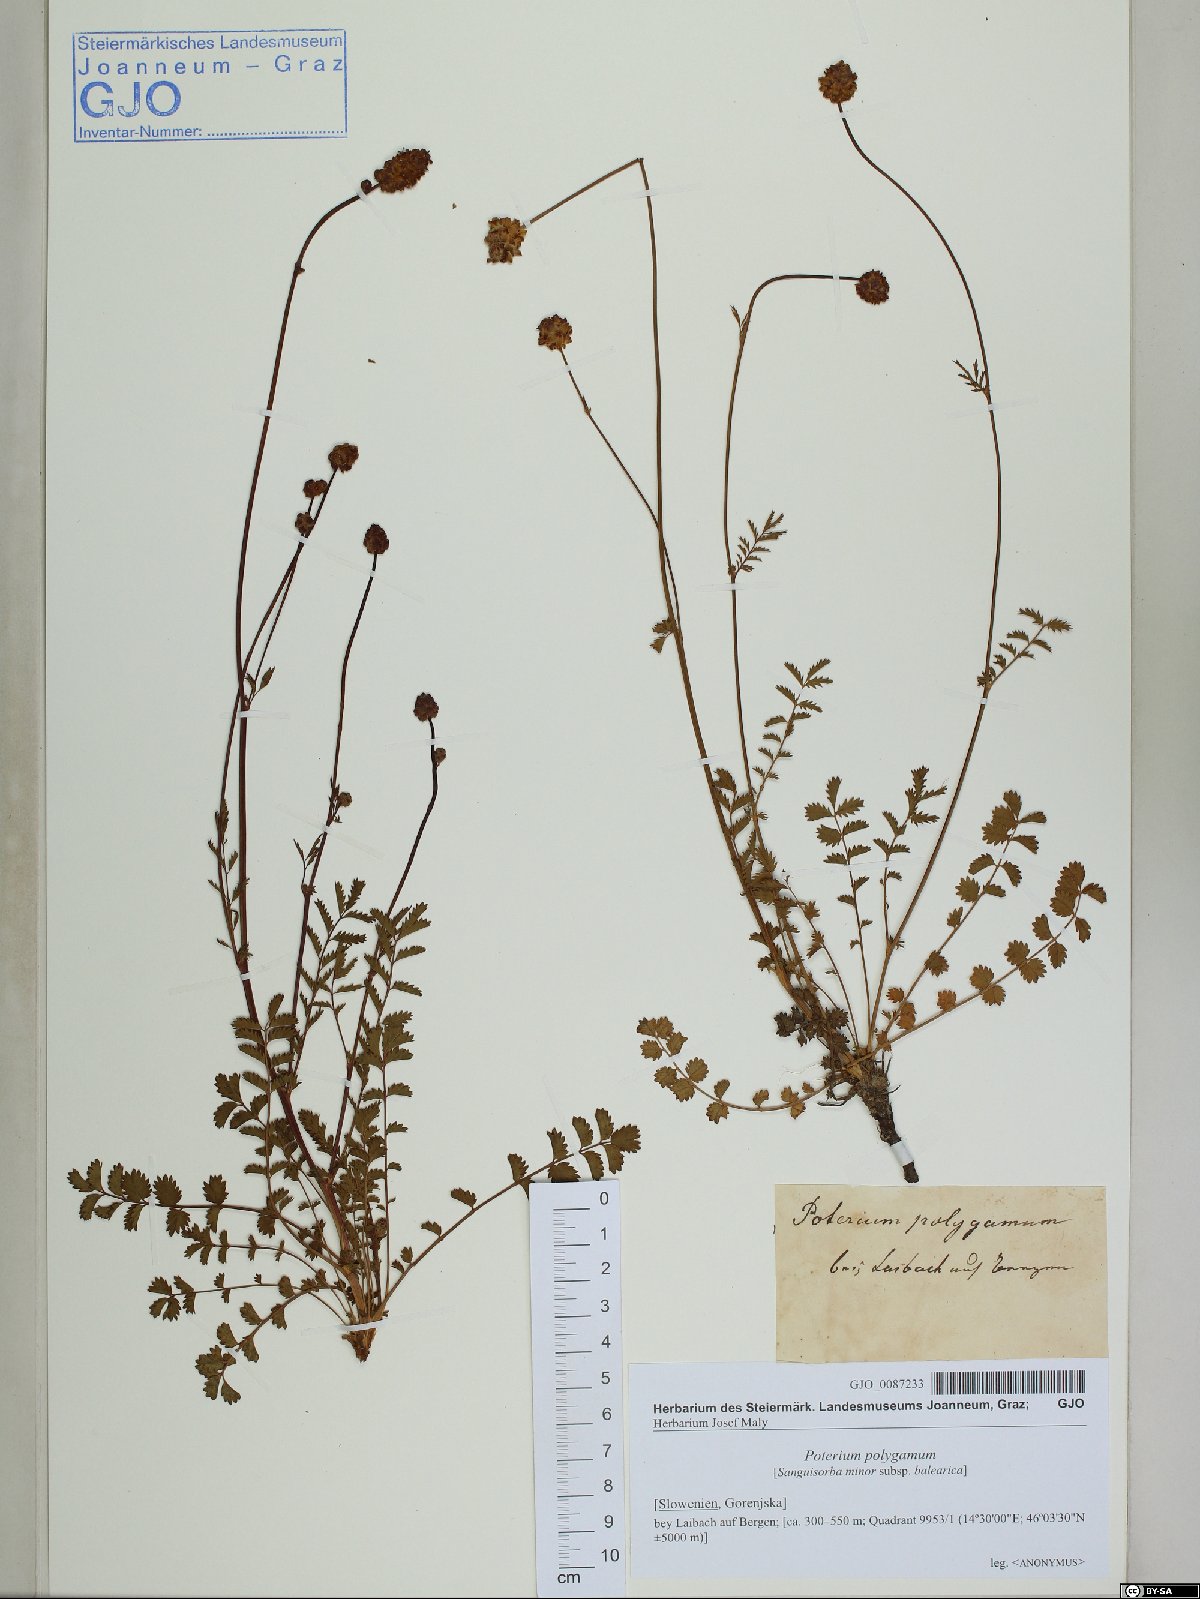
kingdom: Plantae
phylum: Tracheophyta
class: Magnoliopsida
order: Rosales
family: Rosaceae
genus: Poterium
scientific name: Poterium sanguisorba
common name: Salad burnet
